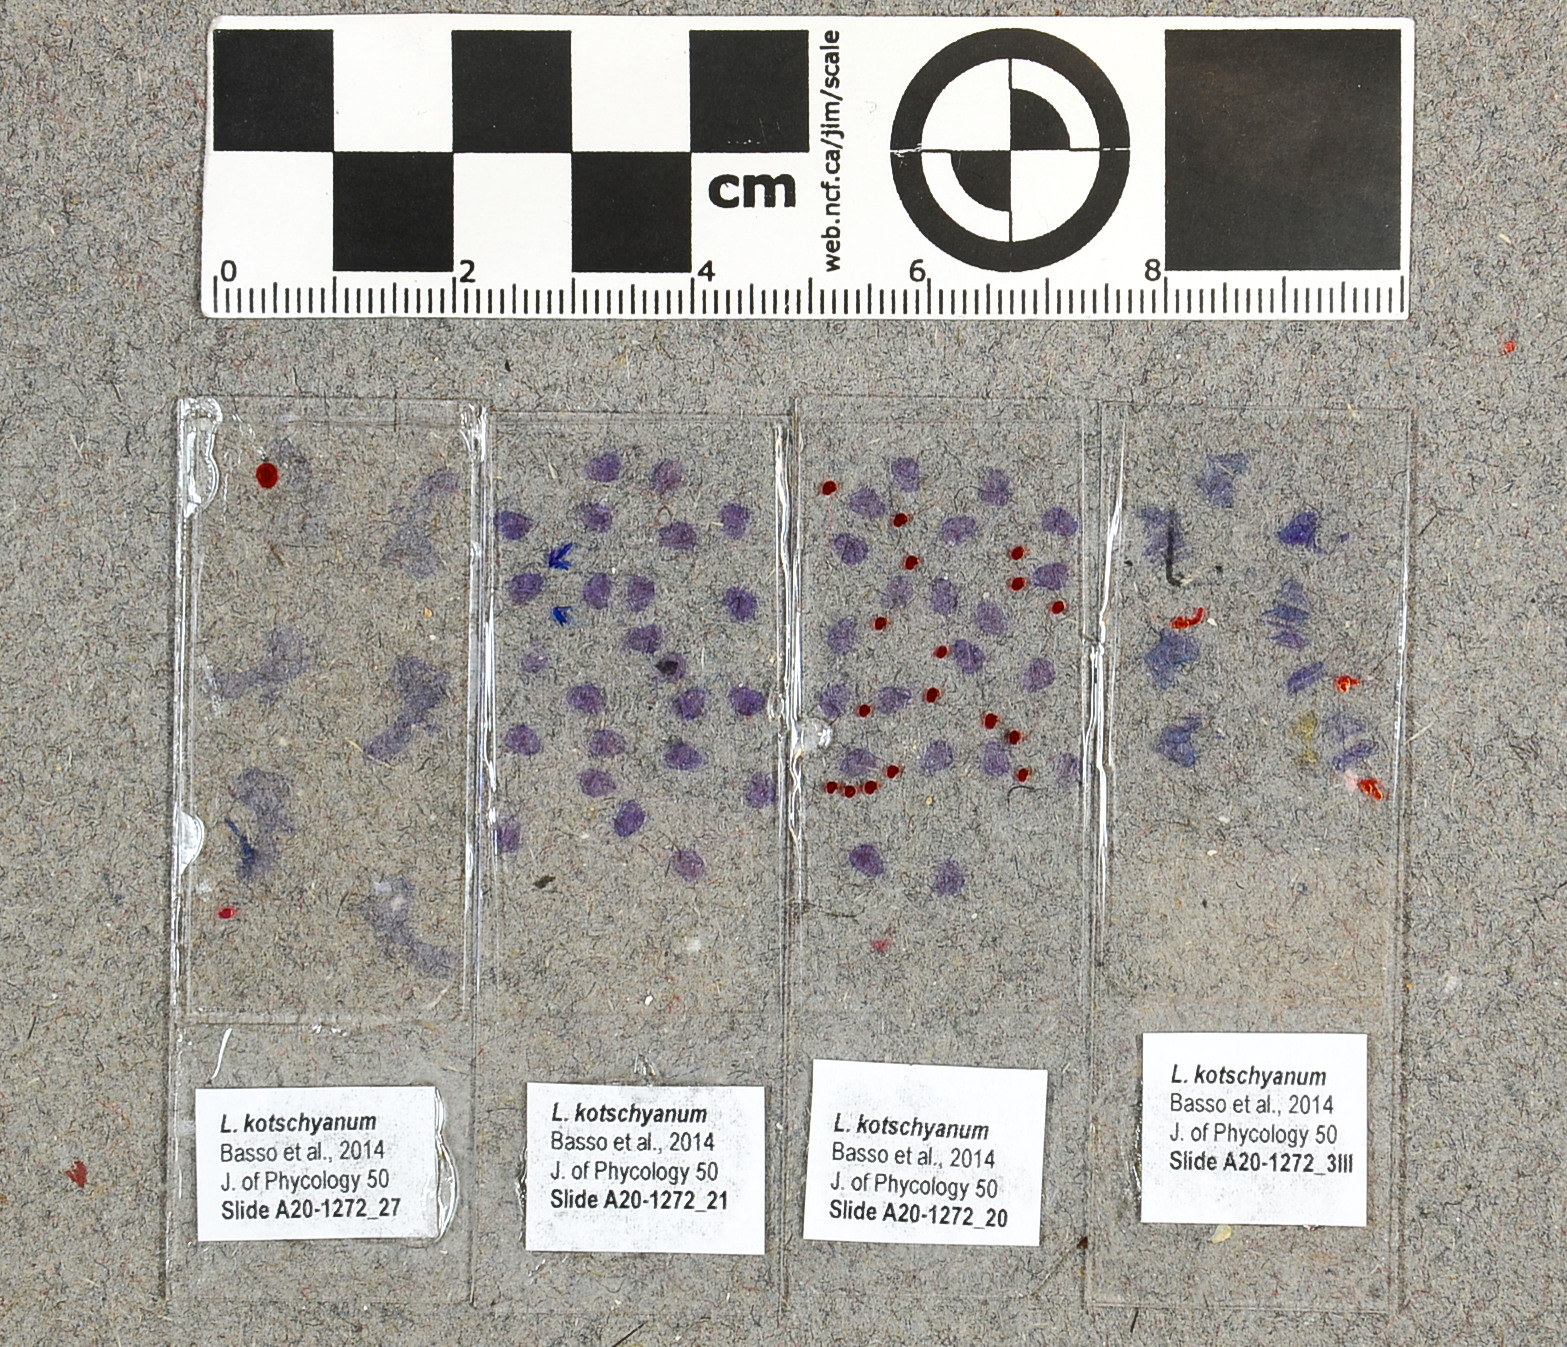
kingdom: Plantae
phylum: Rhodophyta
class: Florideophyceae
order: Corallinales
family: Lithophyllaceae
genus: Lithophyllum
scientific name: Lithophyllum kotschyanum
